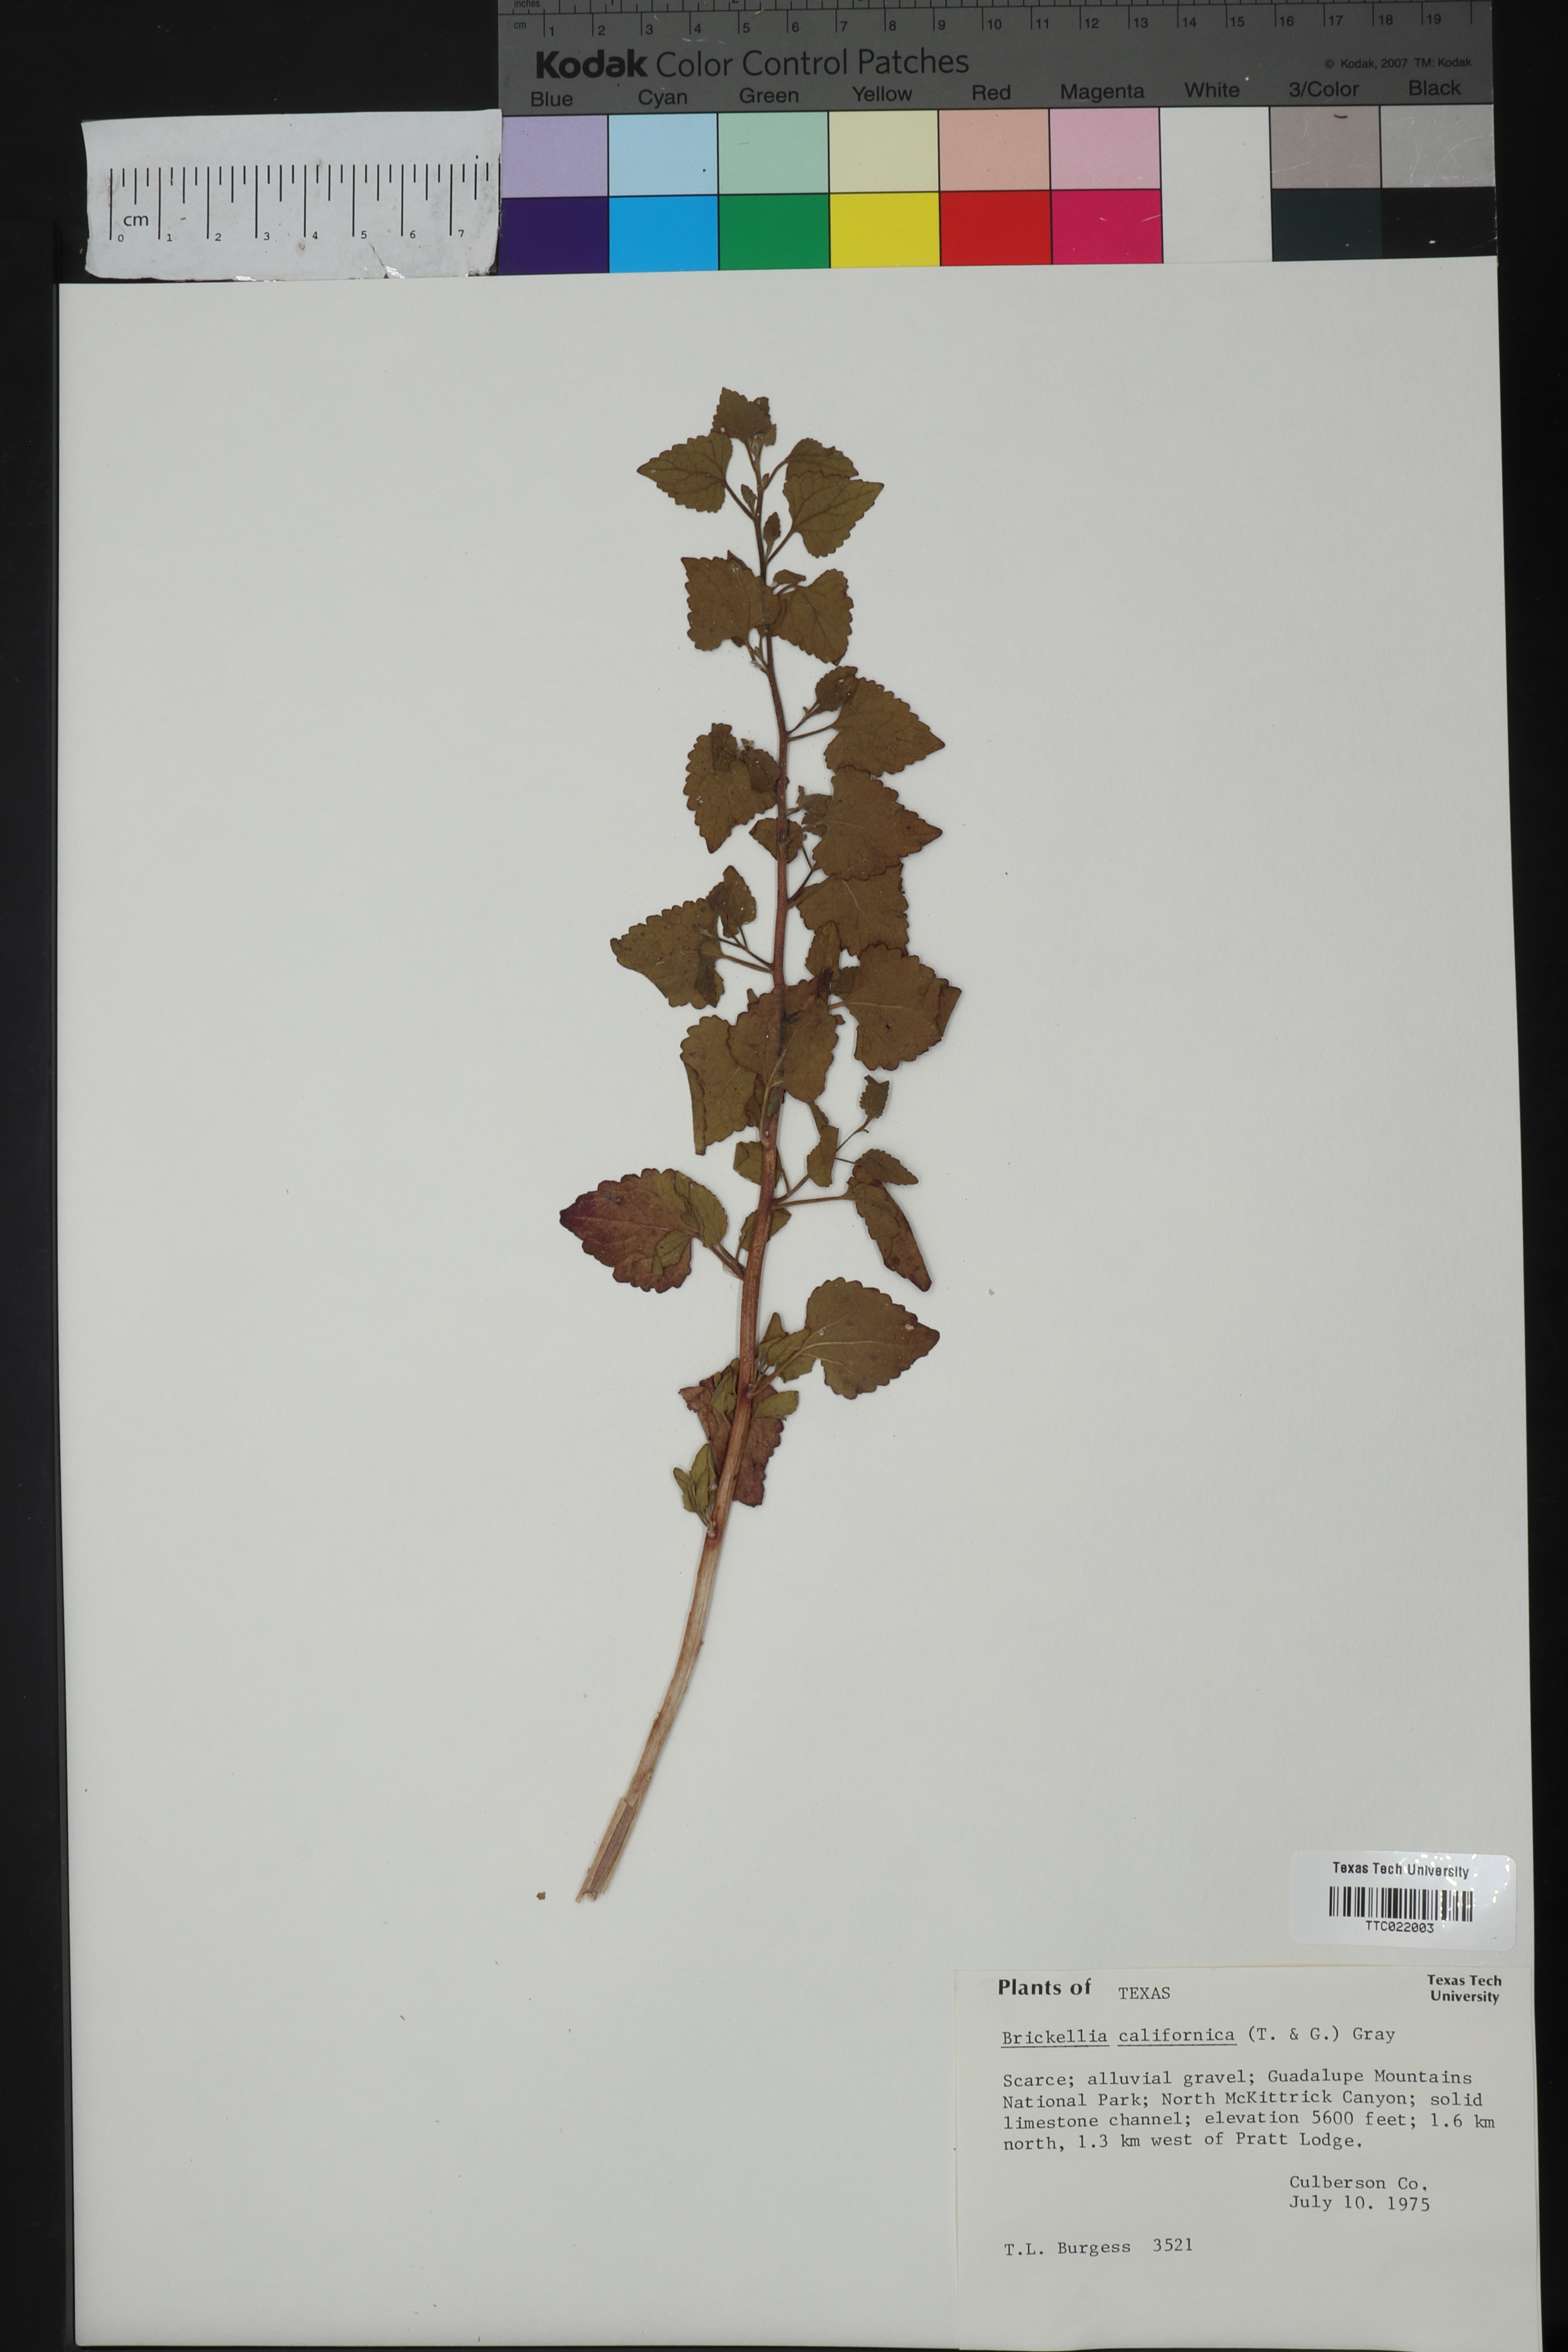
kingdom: Plantae
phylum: Tracheophyta
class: Magnoliopsida
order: Asterales
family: Asteraceae
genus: Brickellia
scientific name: Brickellia californica
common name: California brickellbush
